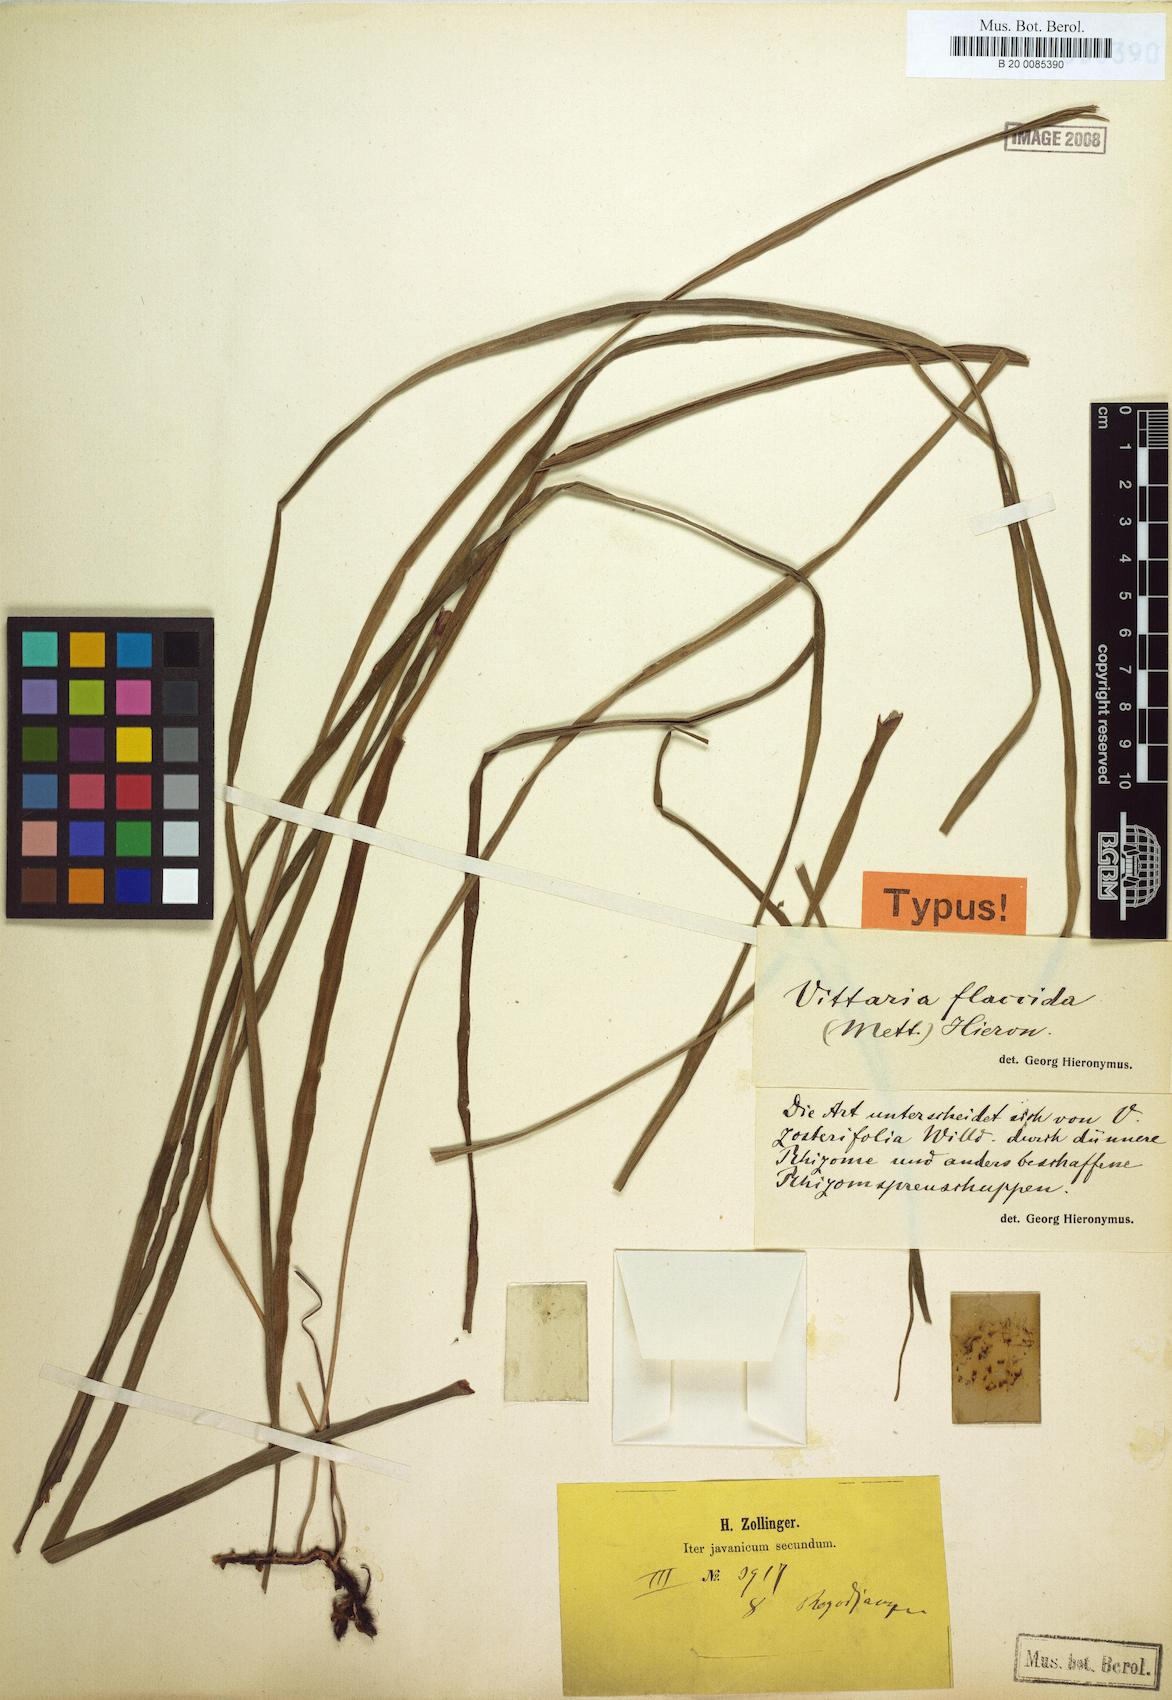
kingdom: Plantae
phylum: Tracheophyta
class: Polypodiopsida
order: Polypodiales
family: Pteridaceae
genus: Haplopteris
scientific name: Haplopteris elongata
